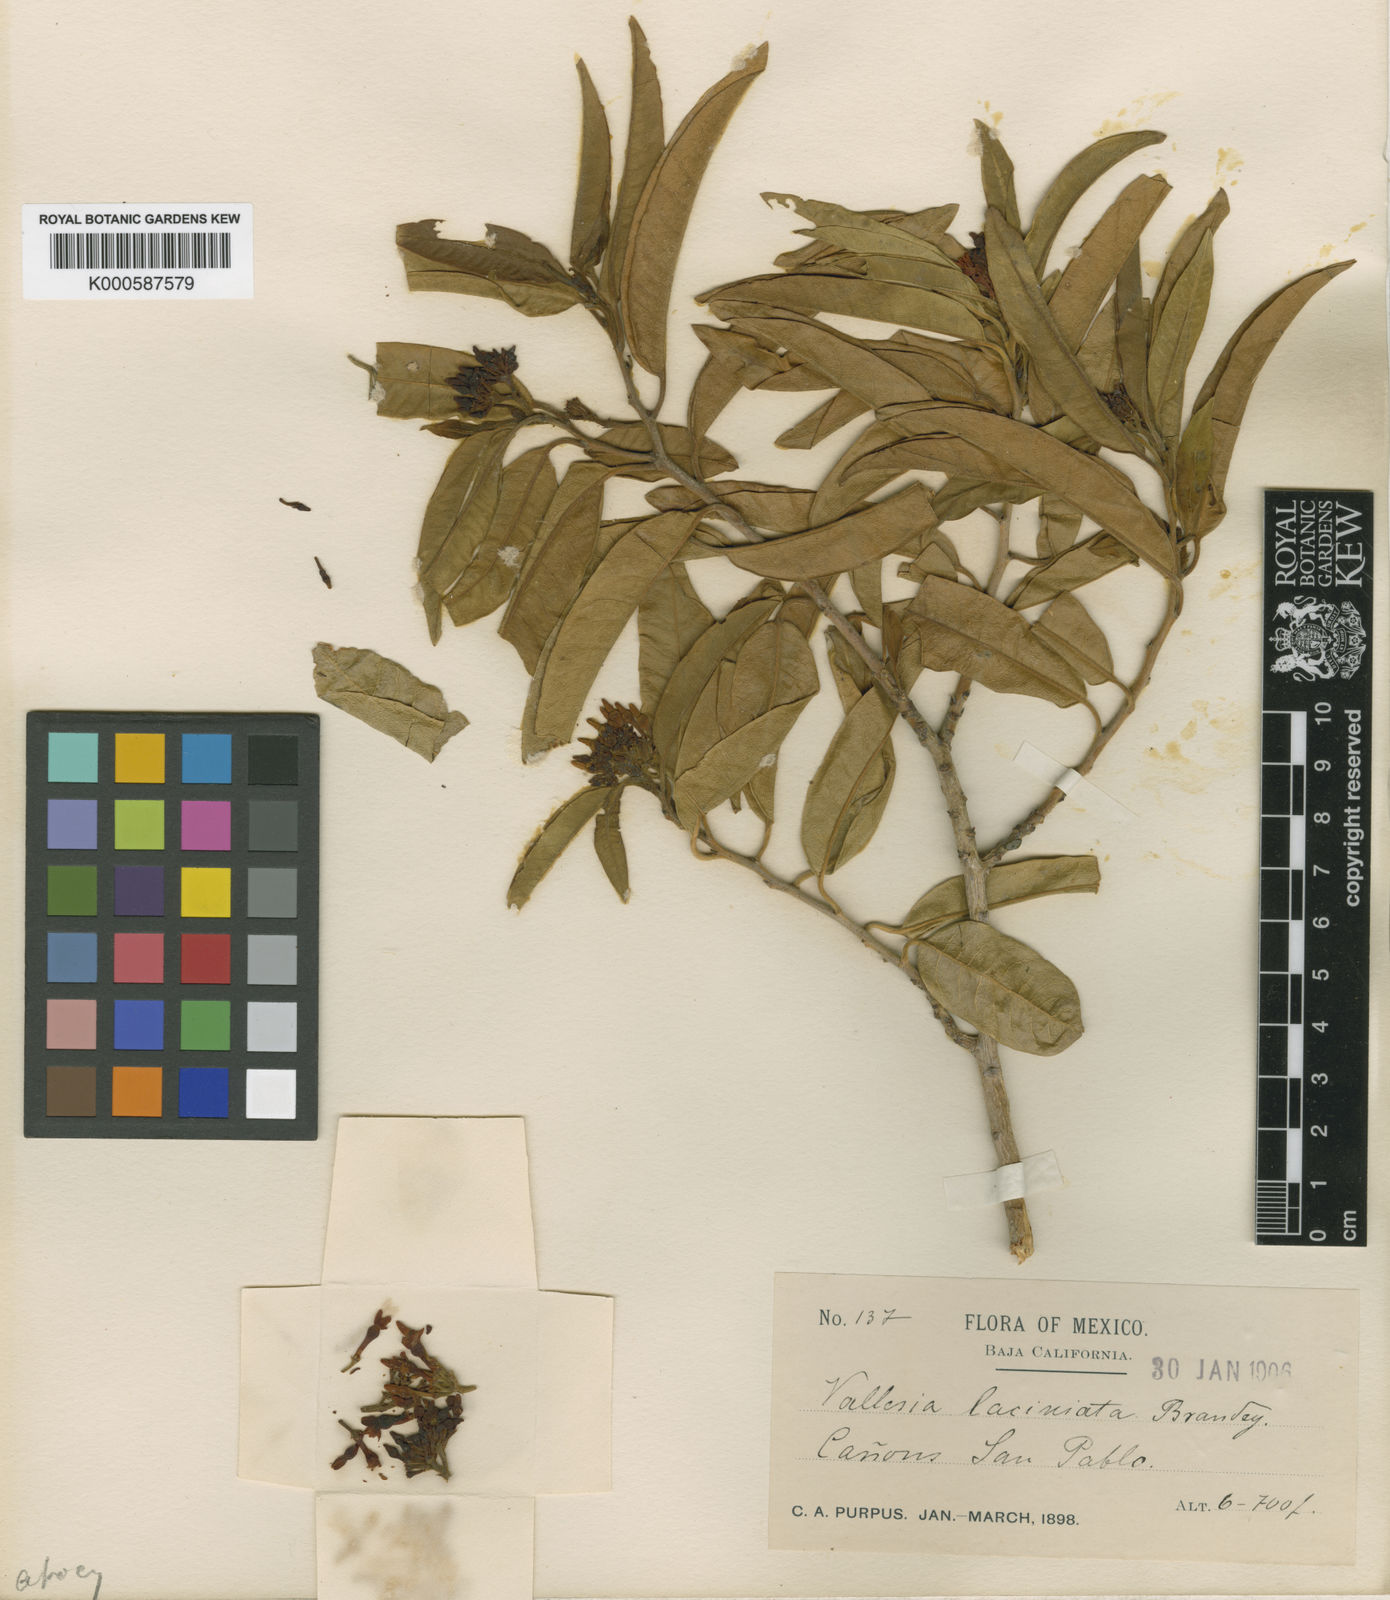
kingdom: Plantae
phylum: Tracheophyta
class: Magnoliopsida
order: Gentianales
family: Apocynaceae
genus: Vallesia
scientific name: Vallesia laciniata
